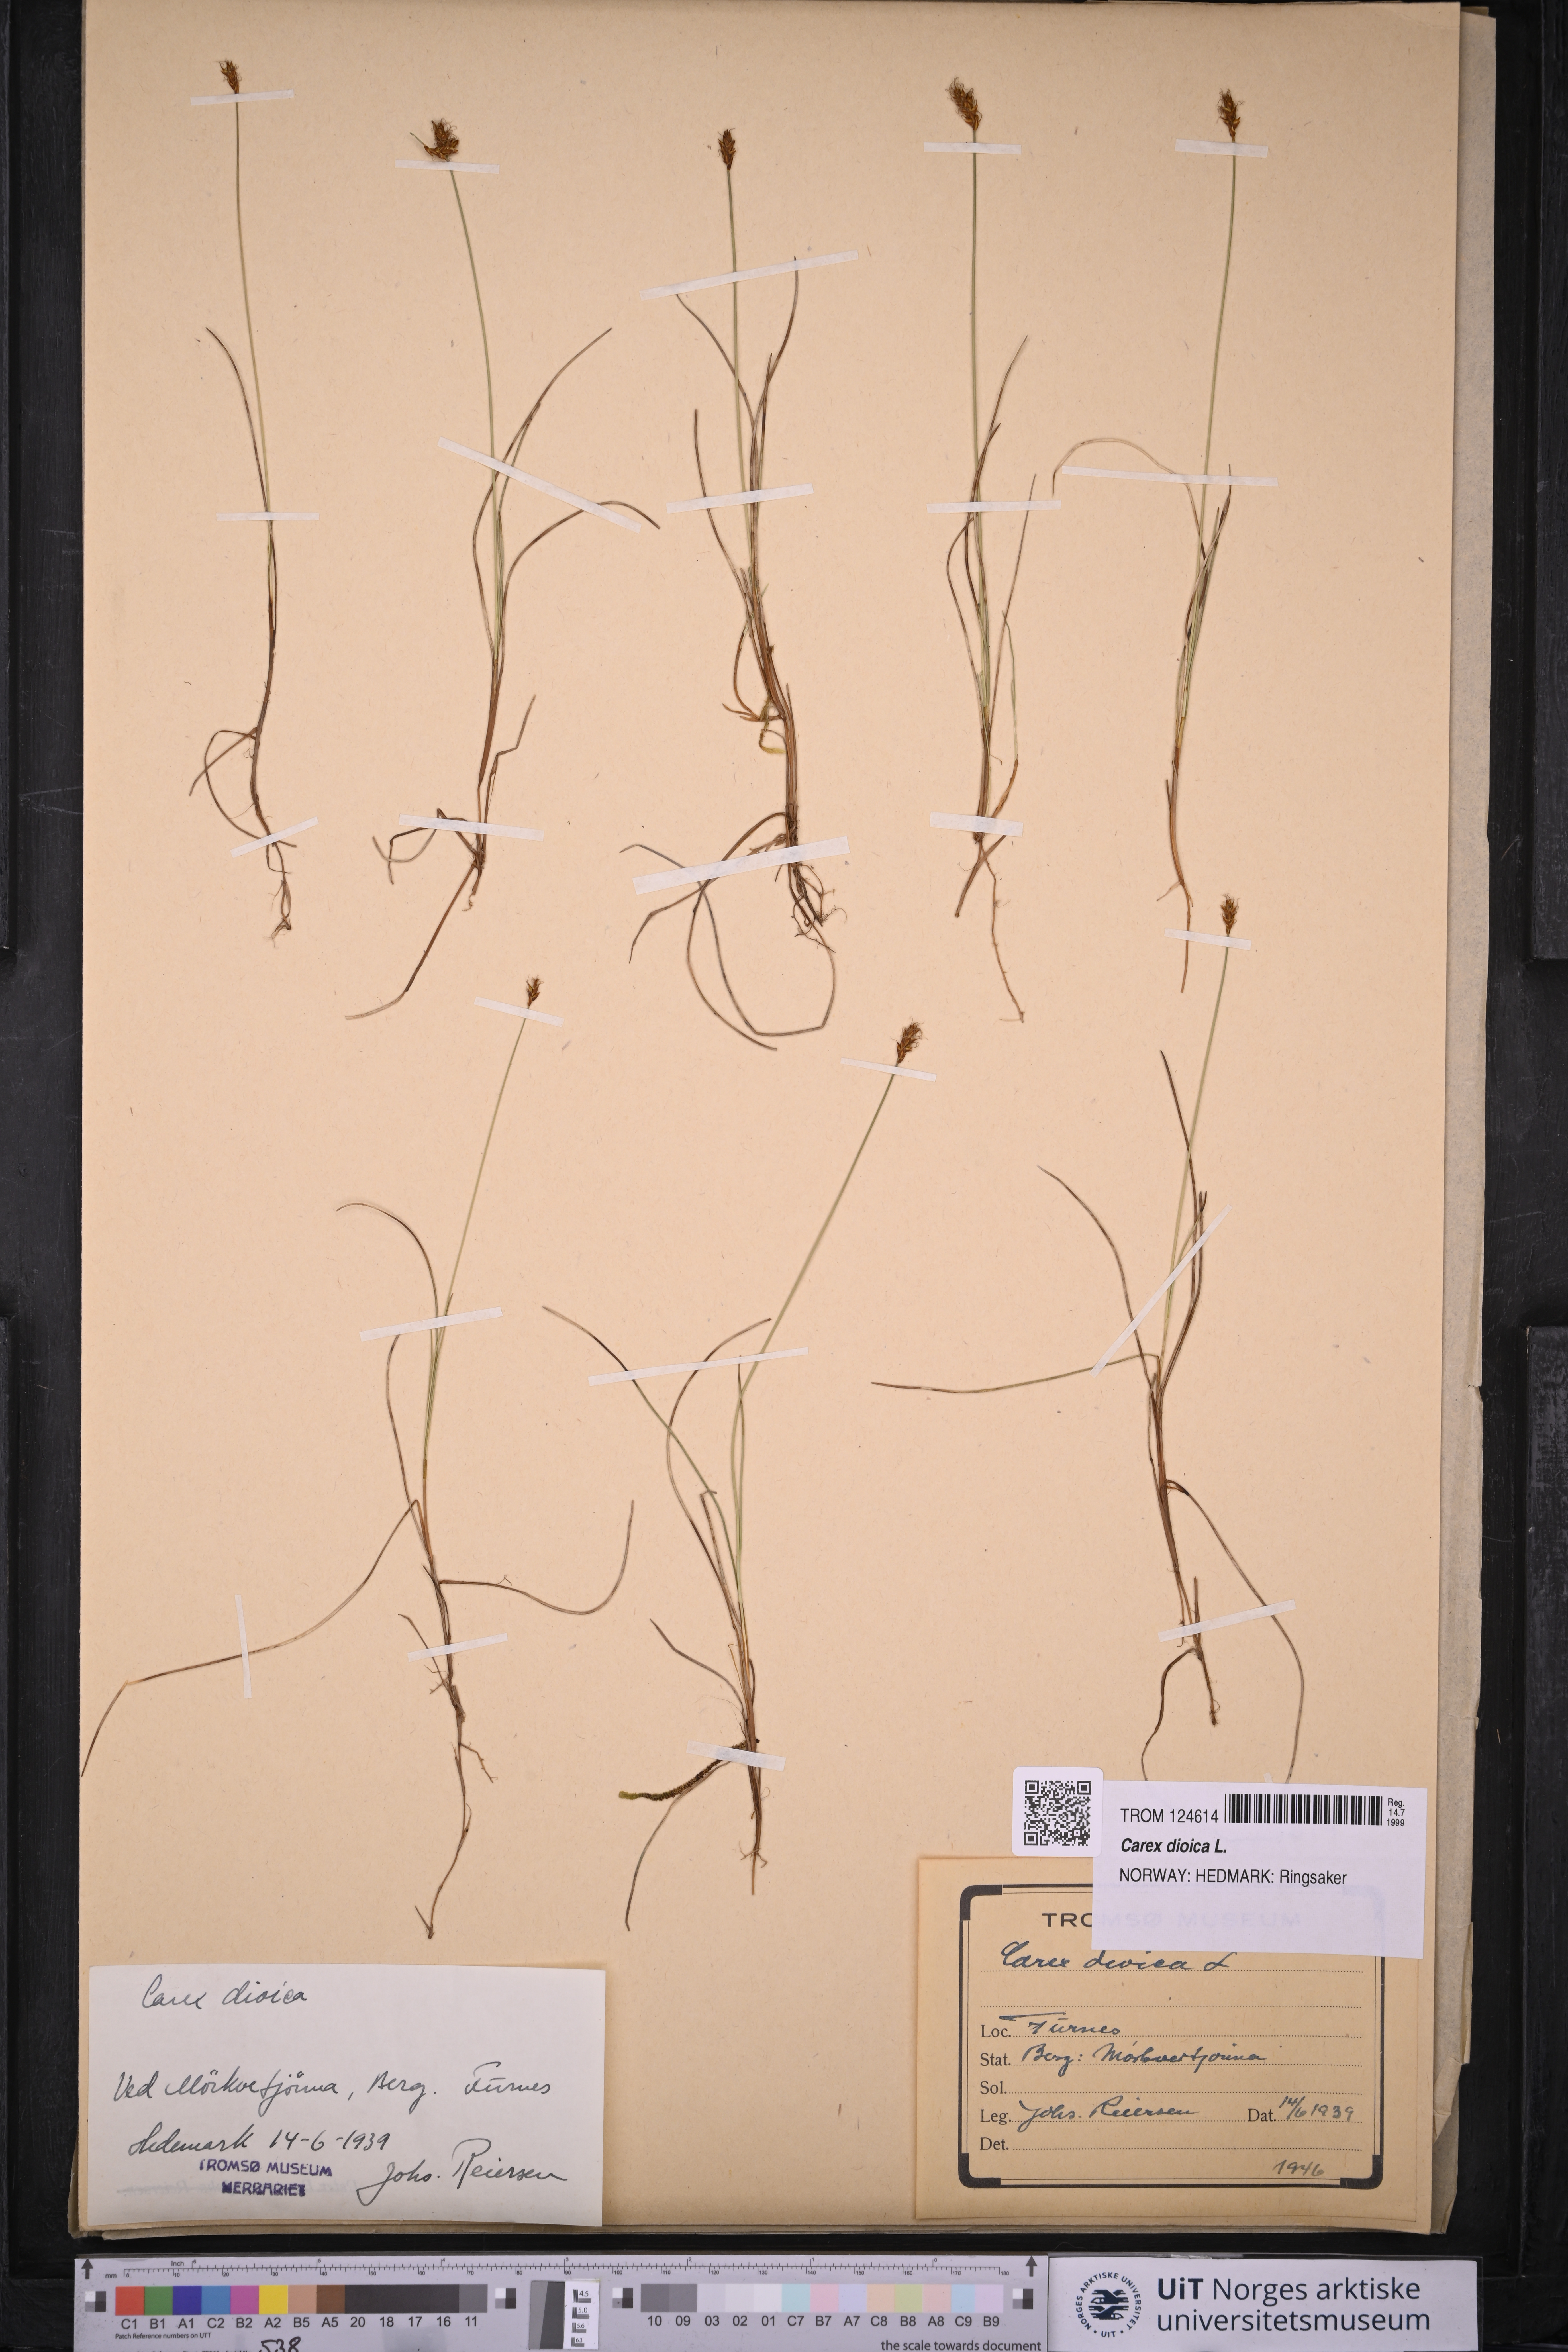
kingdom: Plantae
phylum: Tracheophyta
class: Liliopsida
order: Poales
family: Cyperaceae
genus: Carex
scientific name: Carex dioica
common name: Dioecious sedge
